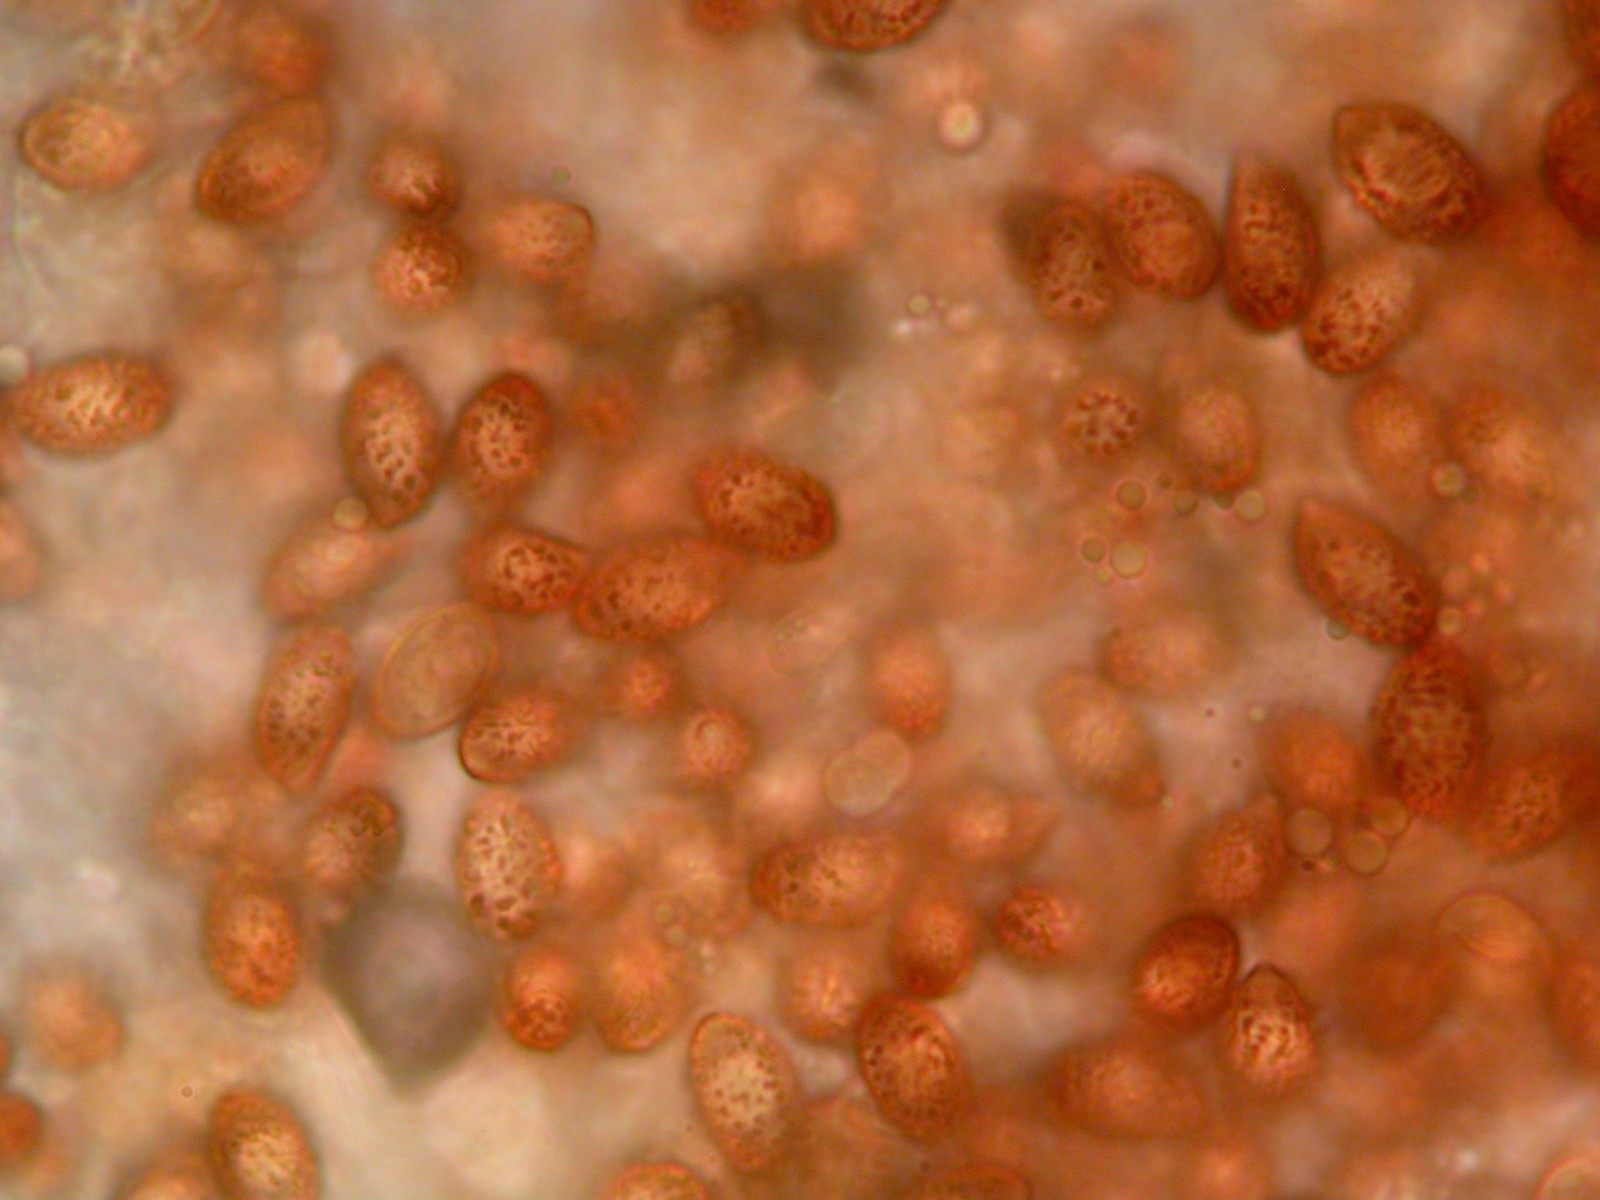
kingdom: Fungi
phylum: Basidiomycota
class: Agaricomycetes
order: Agaricales
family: Cortinariaceae
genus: Thaxterogaster
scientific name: Thaxterogaster subporphyropus
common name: ametyst-slørhat
